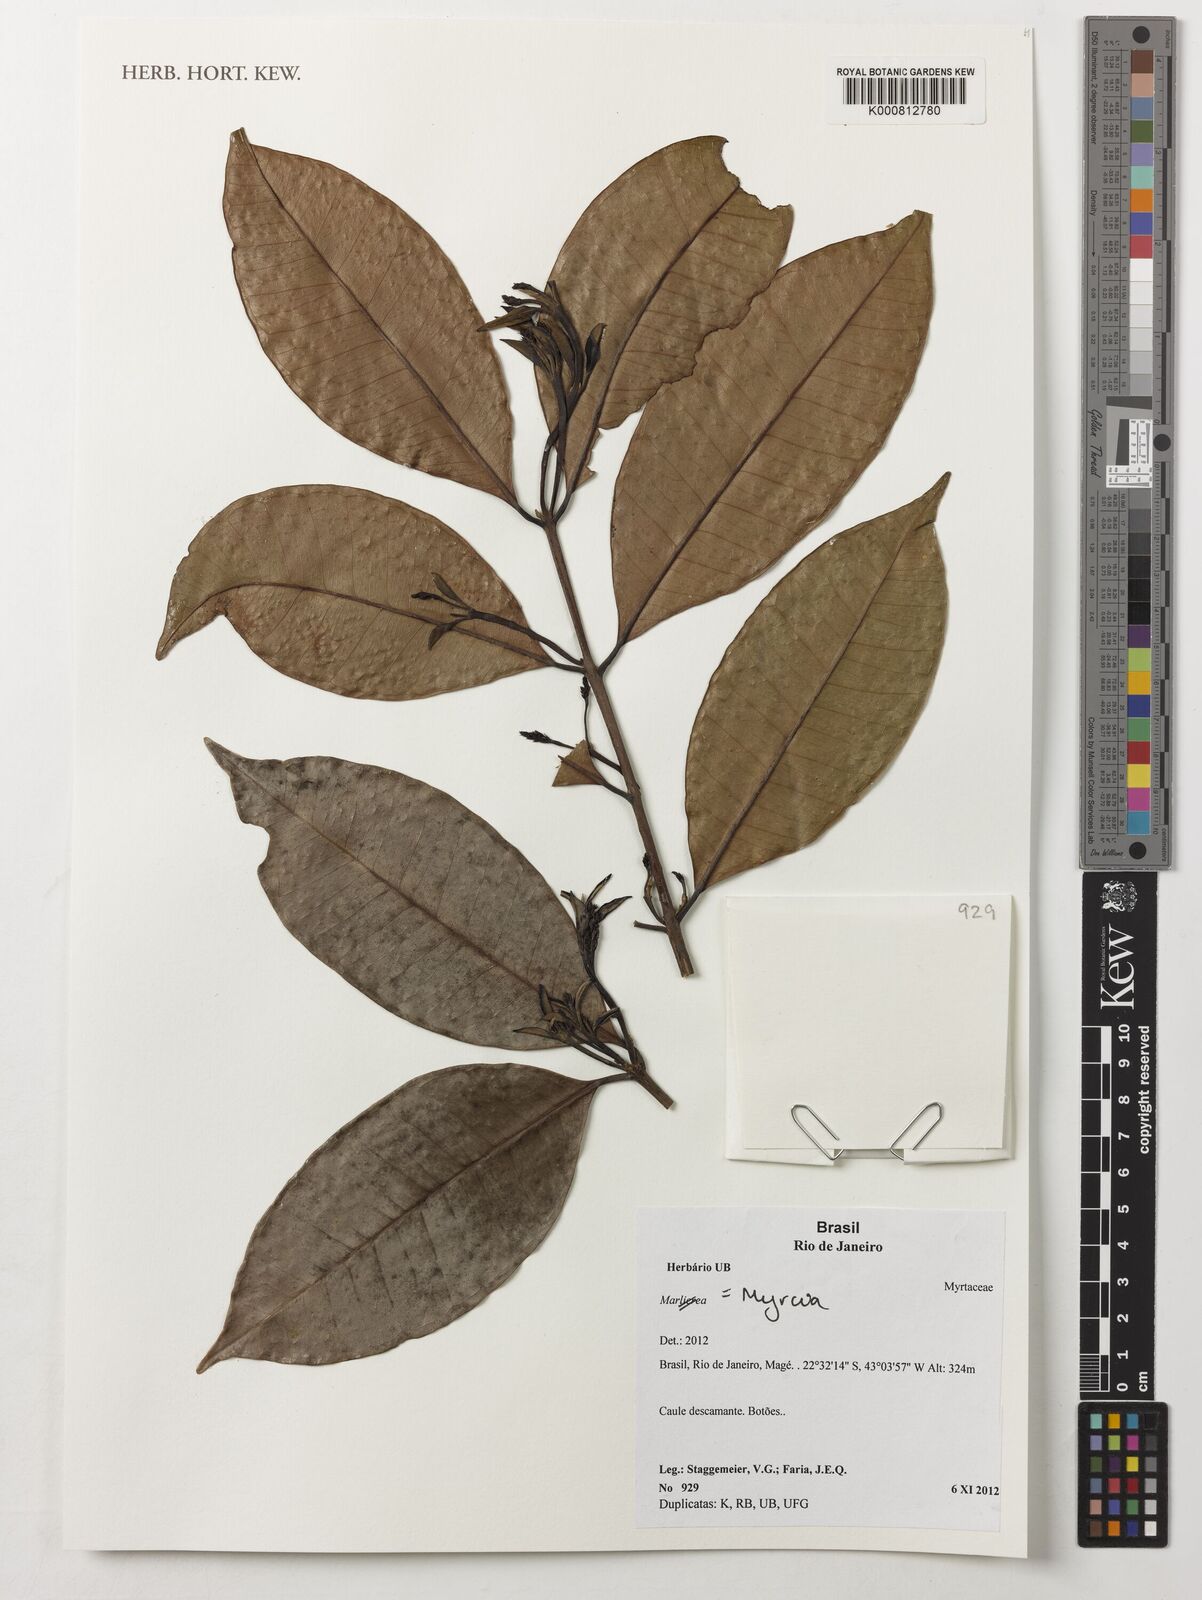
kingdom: Plantae
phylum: Tracheophyta
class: Magnoliopsida
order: Myrtales
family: Myrtaceae
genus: Myrcia
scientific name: Myrcia
